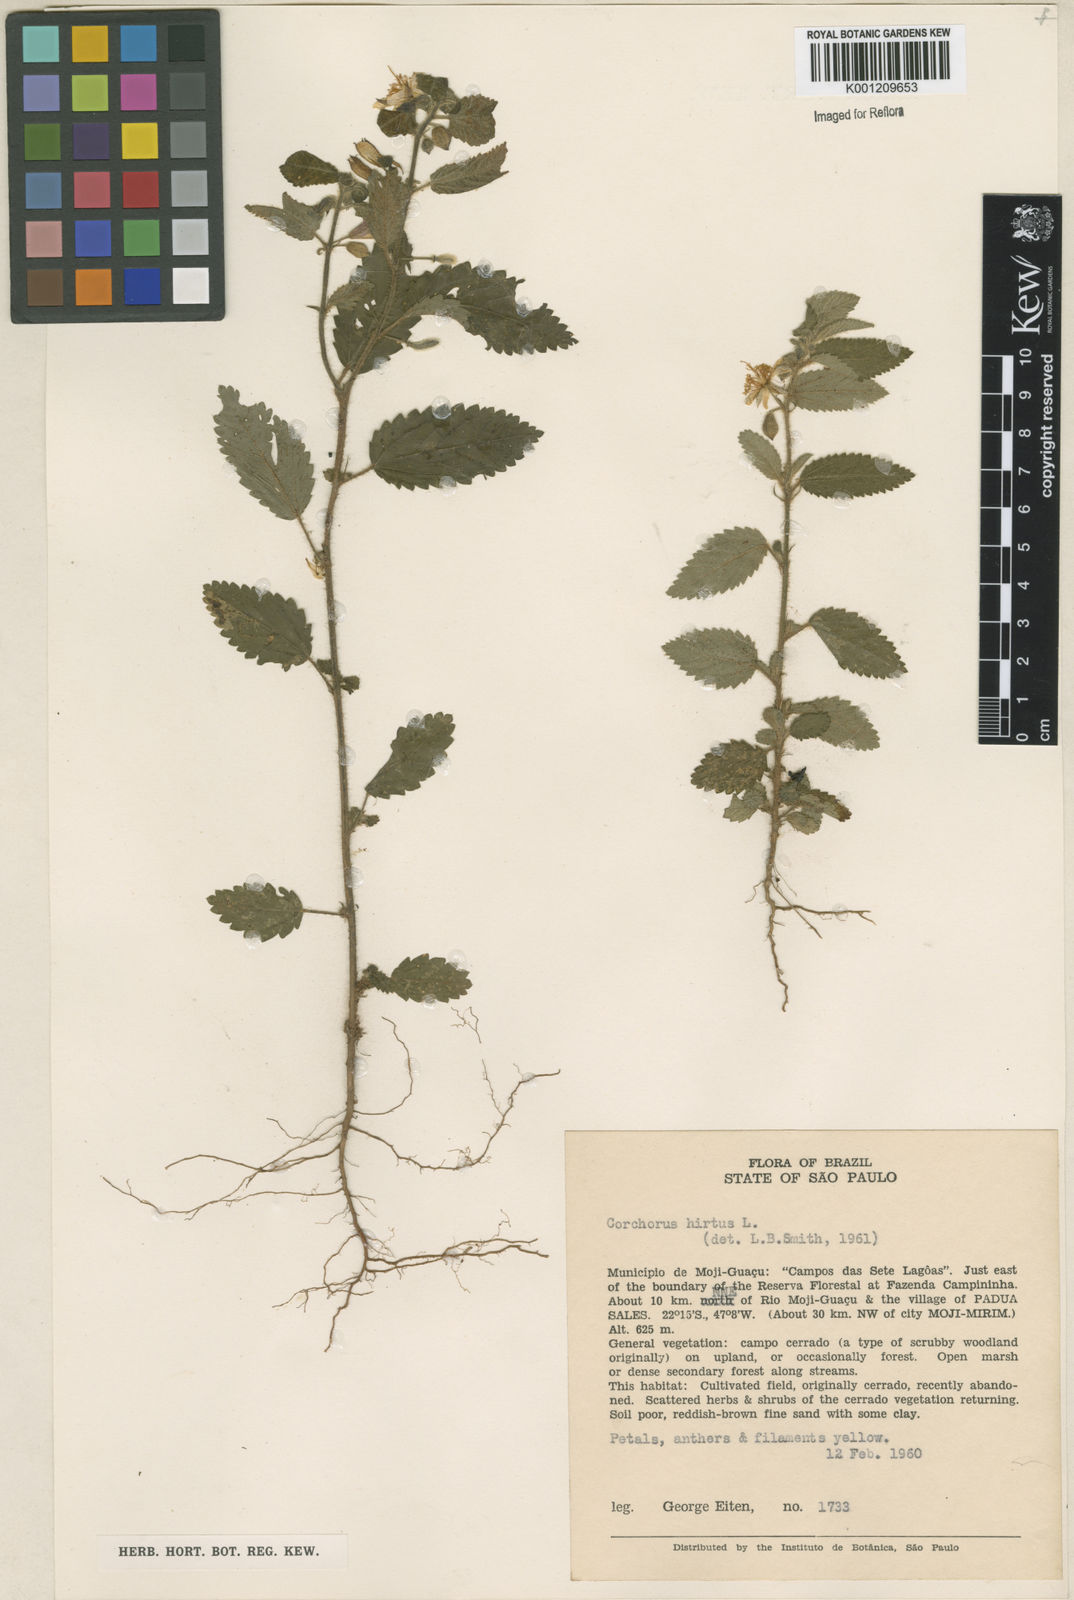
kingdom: Plantae
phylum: Tracheophyta
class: Magnoliopsida
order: Malvales
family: Malvaceae
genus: Corchorus
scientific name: Corchorus hirtus
